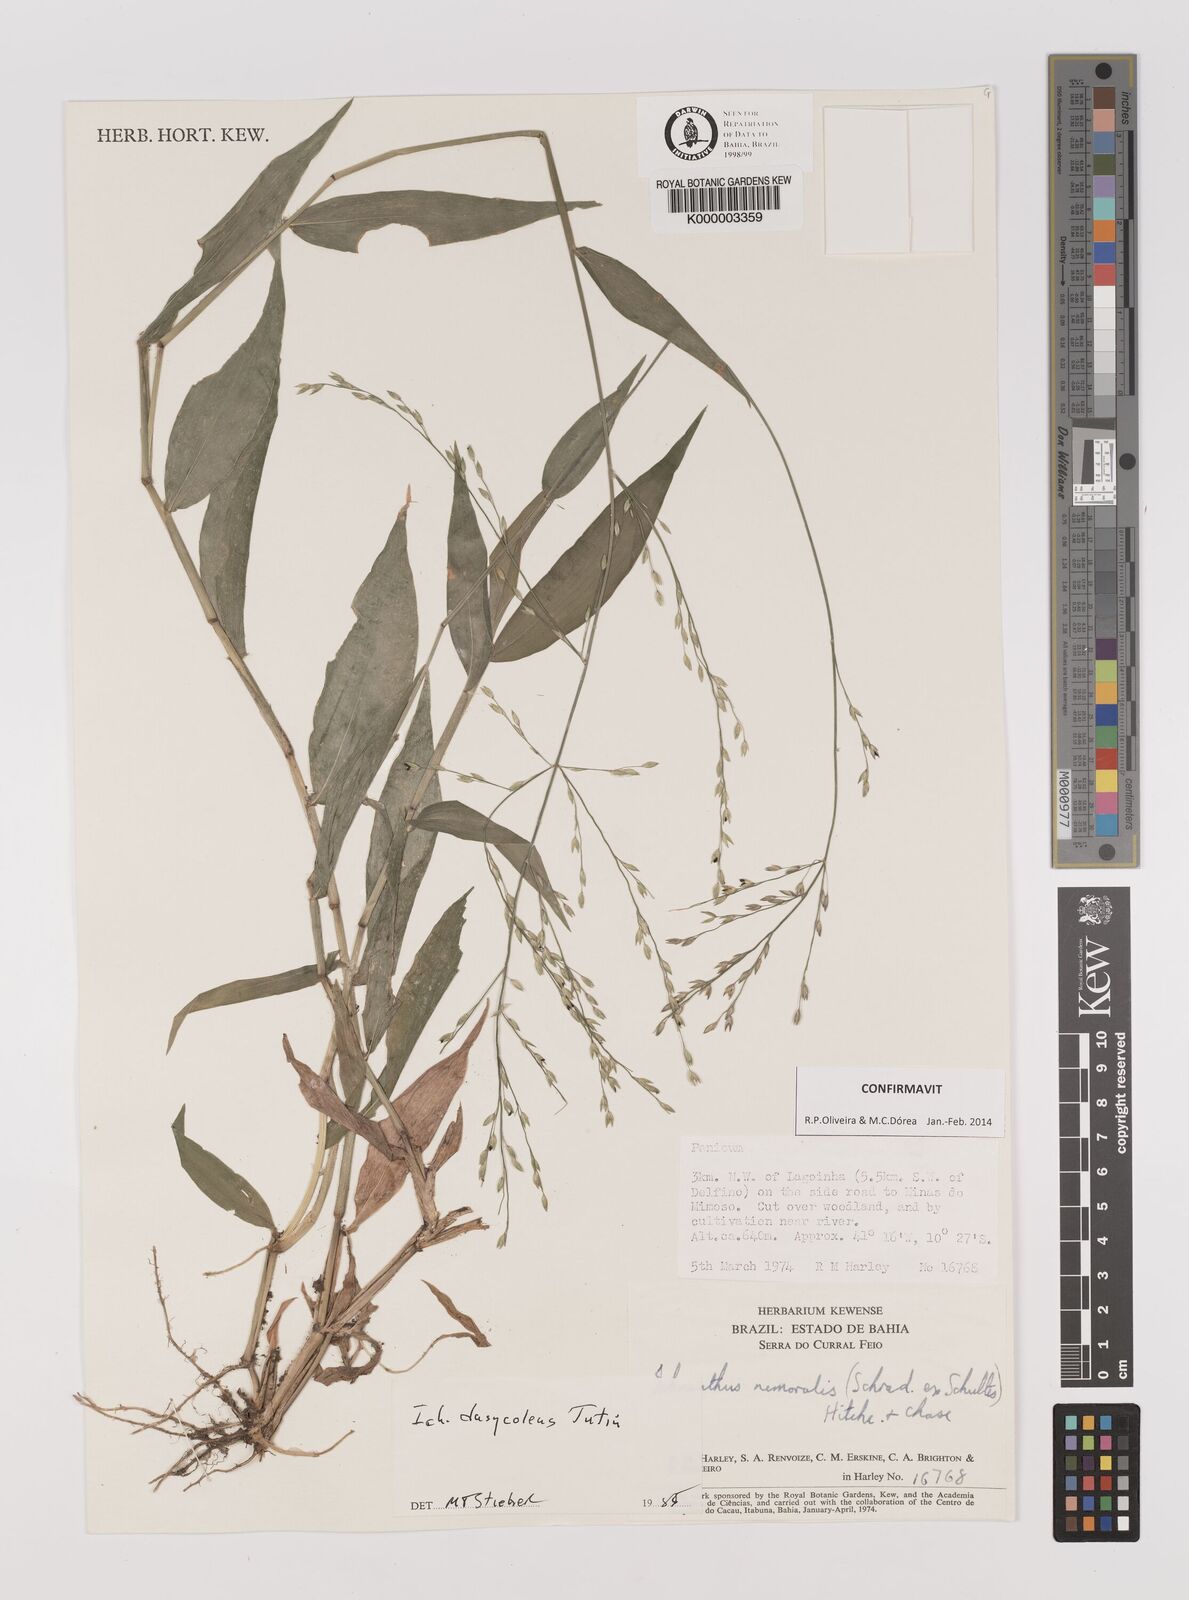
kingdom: Plantae
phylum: Tracheophyta
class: Liliopsida
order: Poales
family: Poaceae
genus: Ichnanthus
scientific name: Ichnanthus dasycoleus
